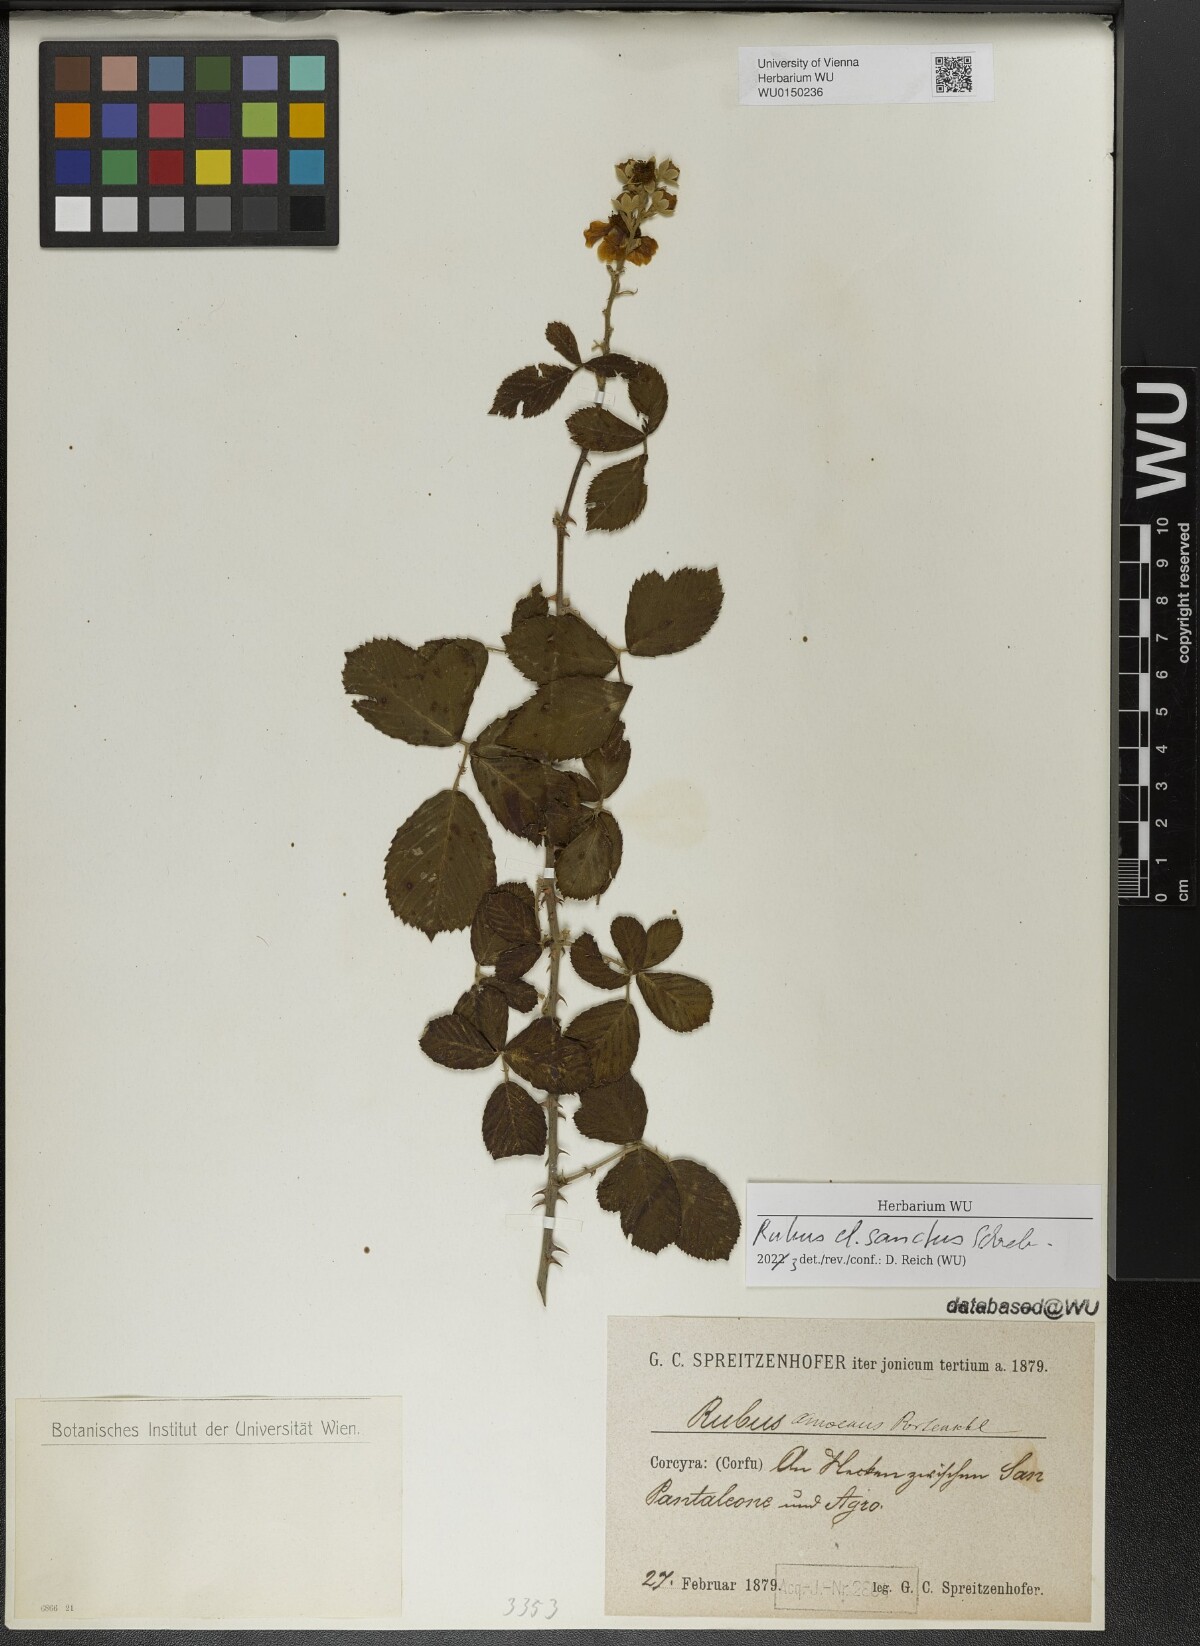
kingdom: Plantae
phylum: Tracheophyta
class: Magnoliopsida
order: Rosales
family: Rosaceae
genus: Rubus
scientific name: Rubus sanctus
